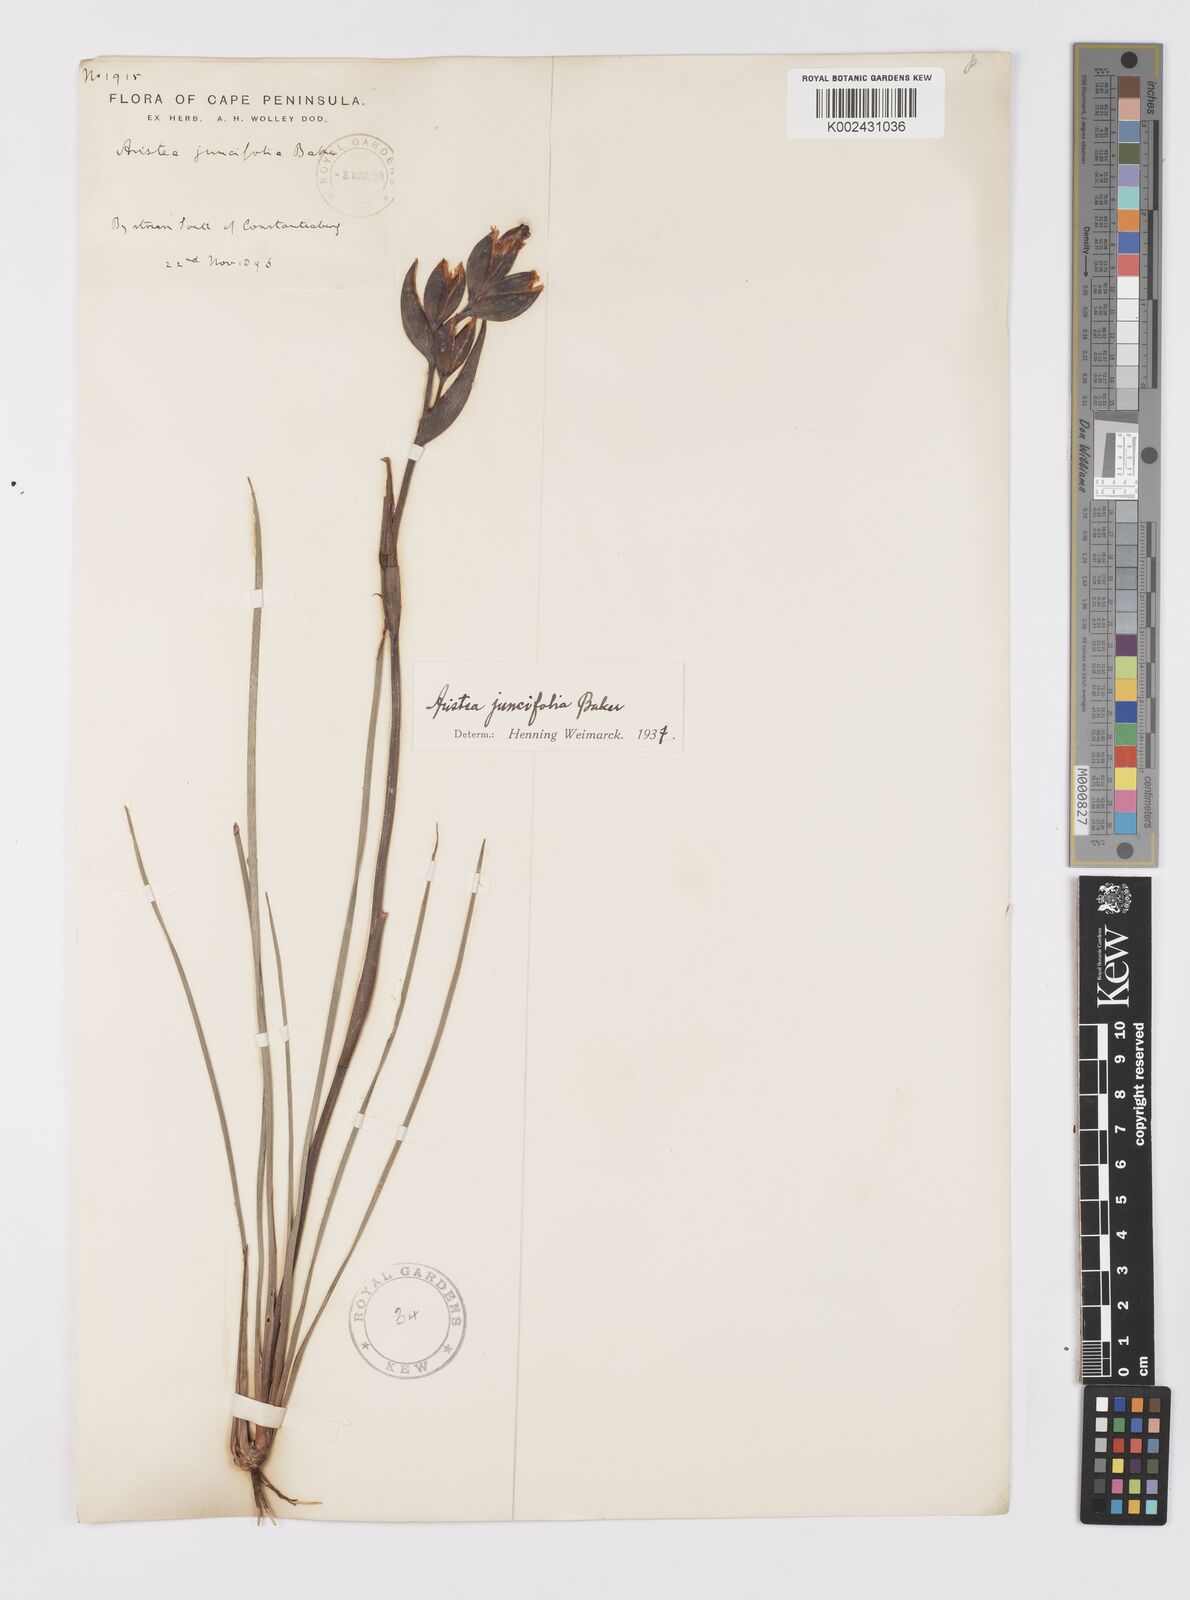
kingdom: Plantae
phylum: Tracheophyta
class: Liliopsida
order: Asparagales
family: Iridaceae
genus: Aristea
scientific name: Aristea juncifolia
